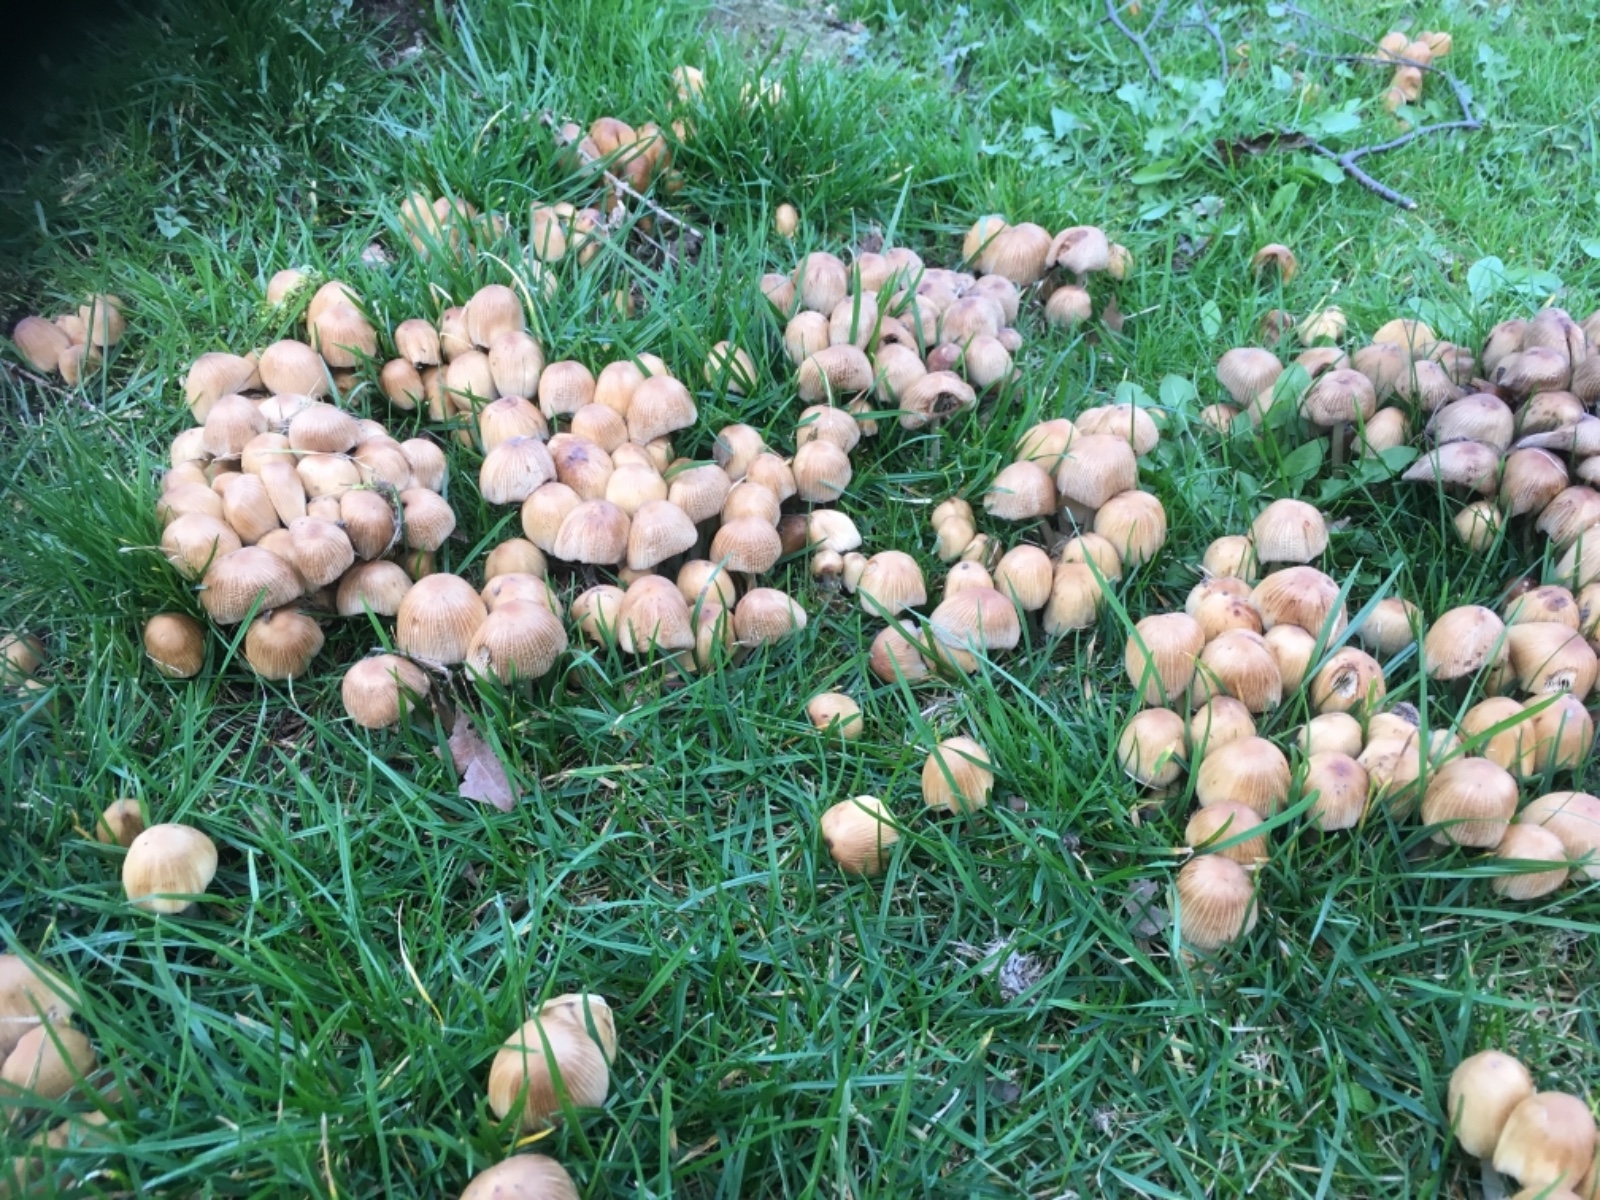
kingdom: Fungi
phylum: Basidiomycota
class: Agaricomycetes
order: Agaricales
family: Psathyrellaceae
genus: Coprinellus
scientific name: Coprinellus micaceus
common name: glimmer-blækhat
